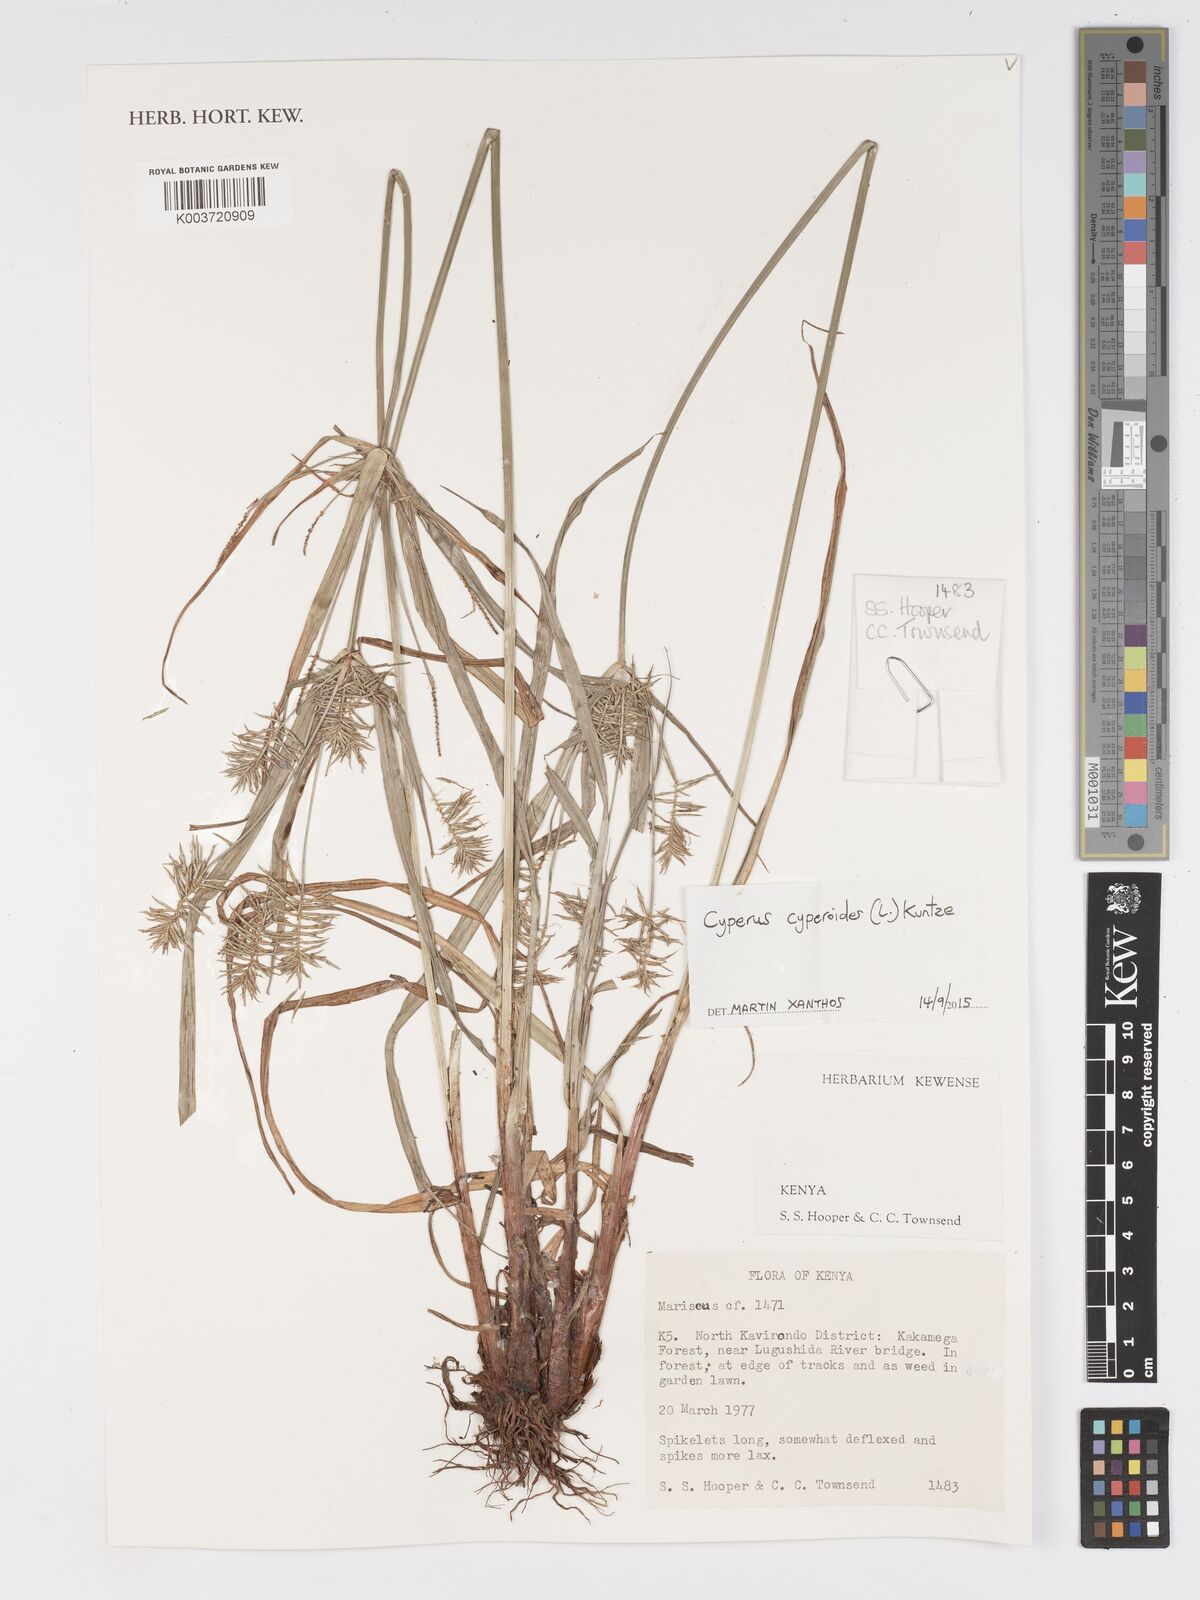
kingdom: Plantae
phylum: Tracheophyta
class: Liliopsida
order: Poales
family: Cyperaceae
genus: Cyperus
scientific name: Cyperus cyperoides
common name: Pacific island flat sedge
